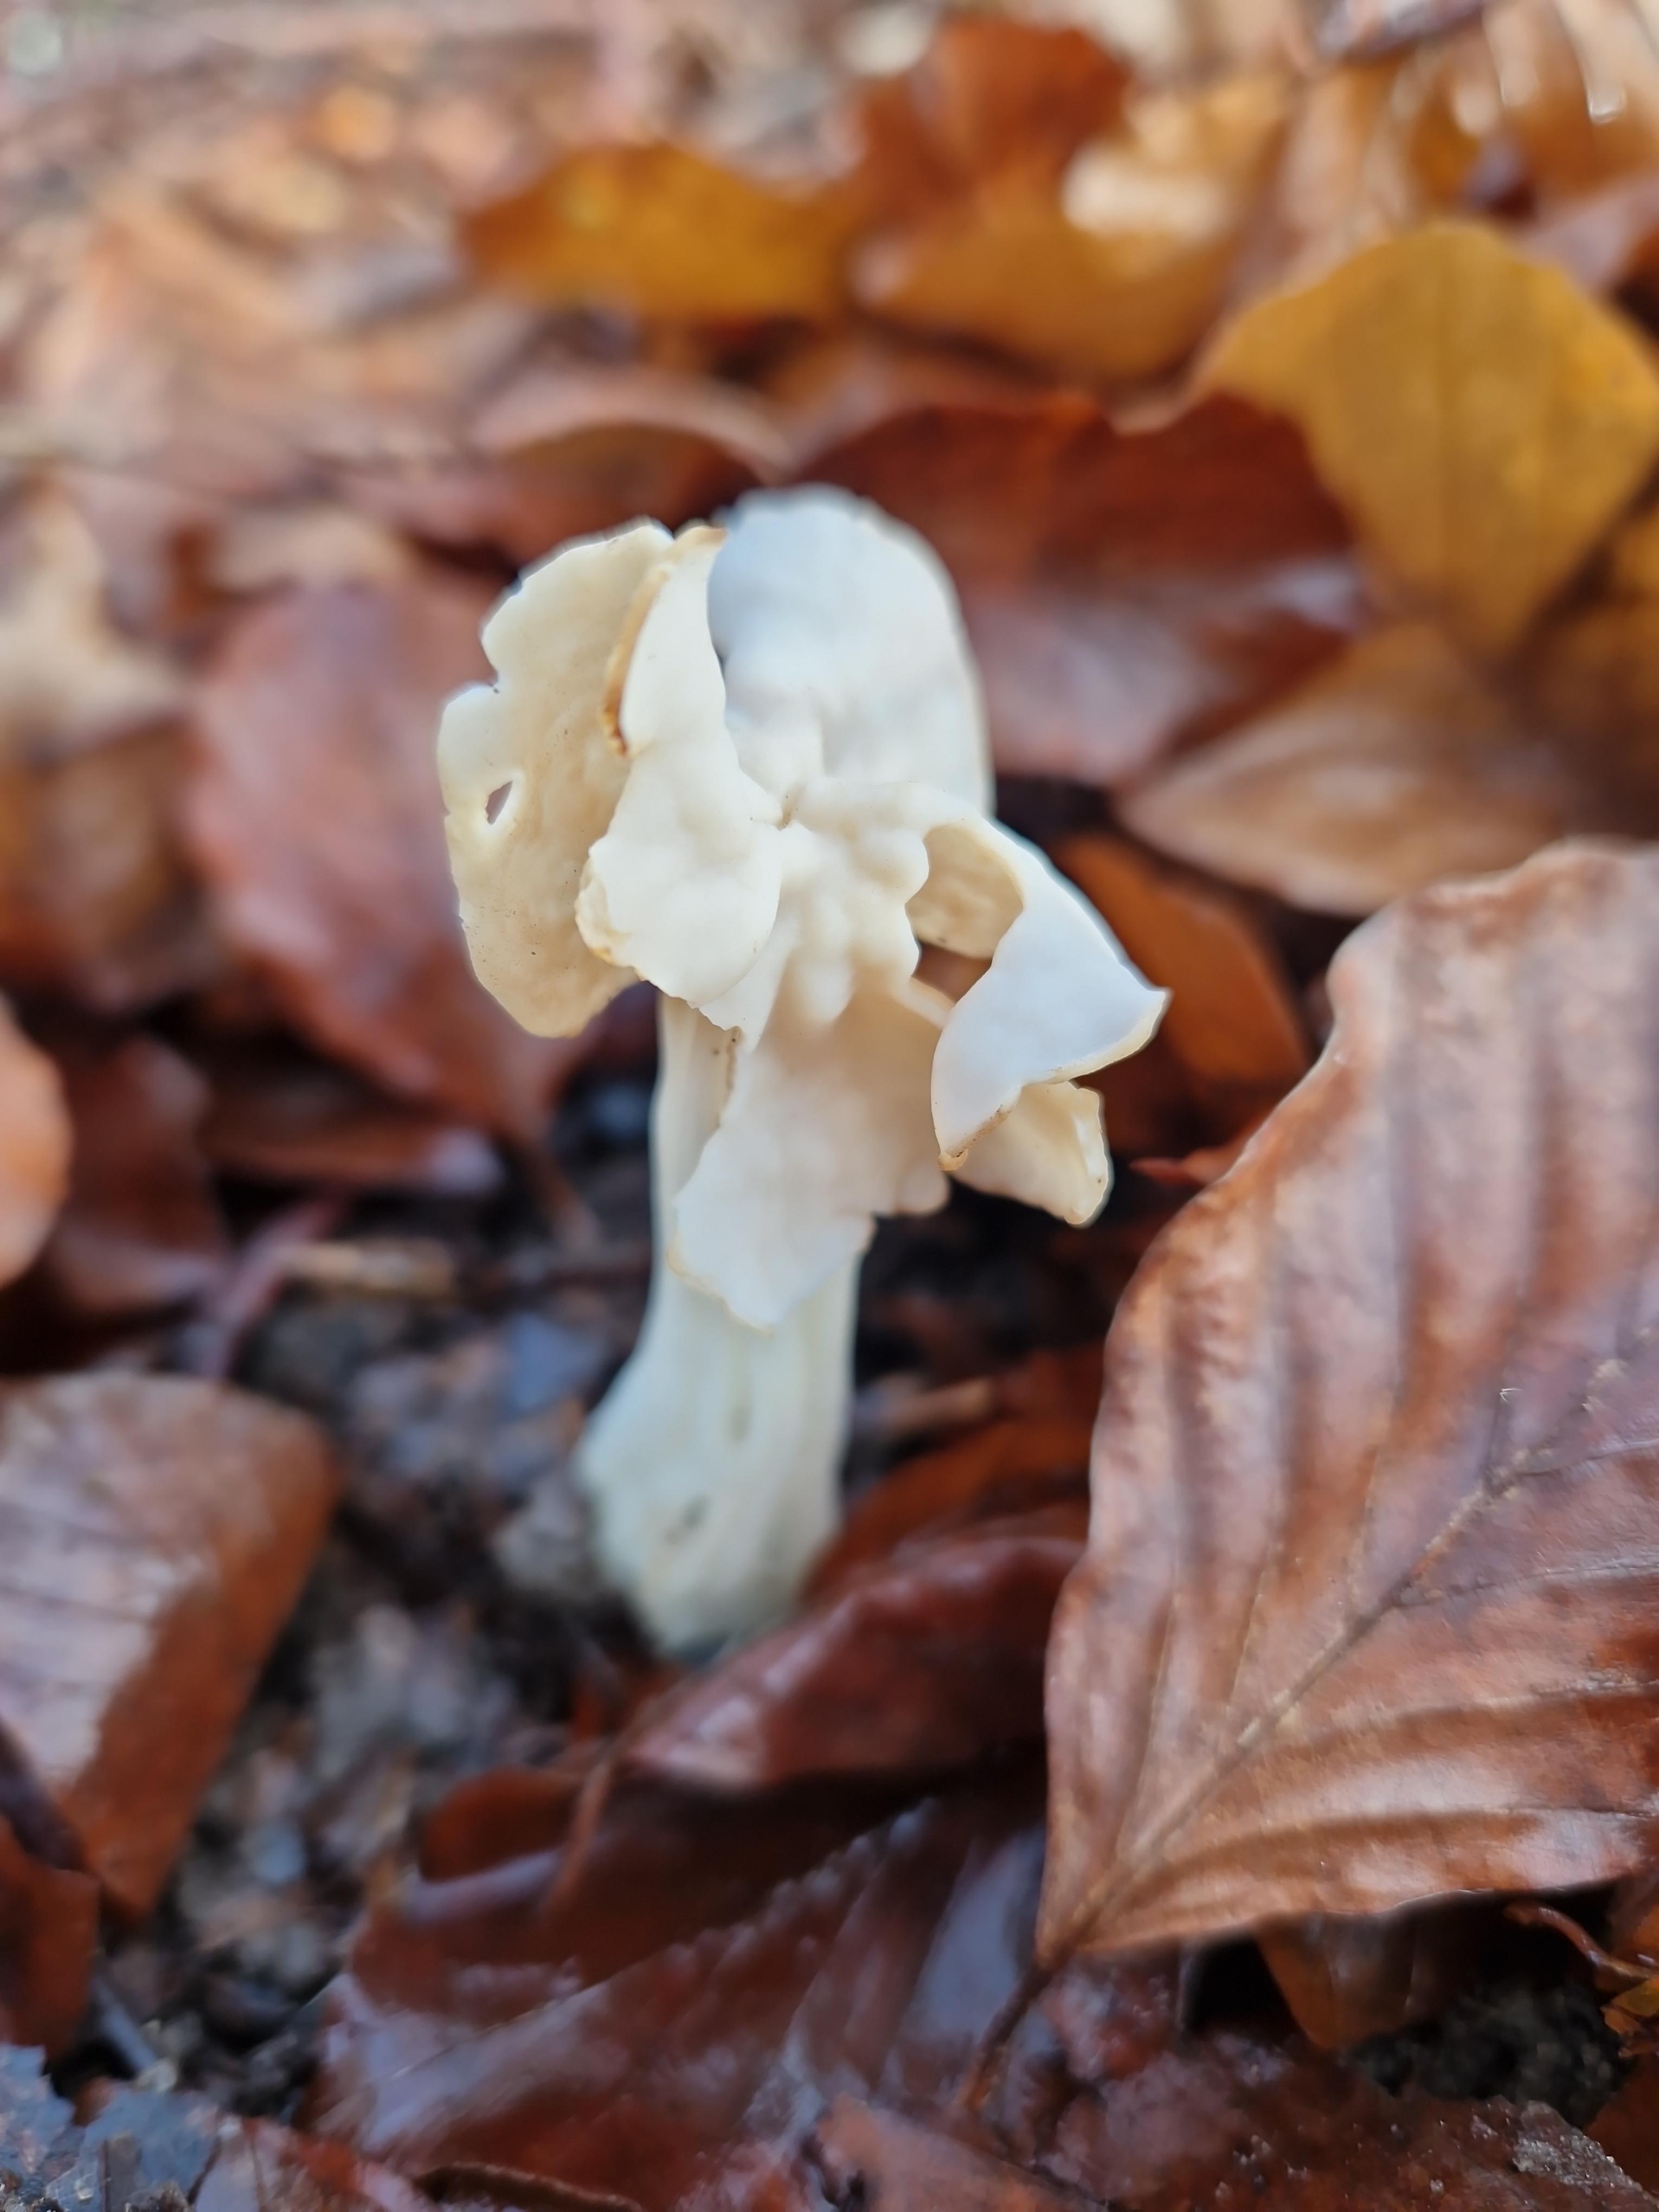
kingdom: Fungi
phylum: Ascomycota
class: Pezizomycetes
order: Pezizales
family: Helvellaceae
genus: Helvella
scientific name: Helvella crispa
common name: kruset foldhat
